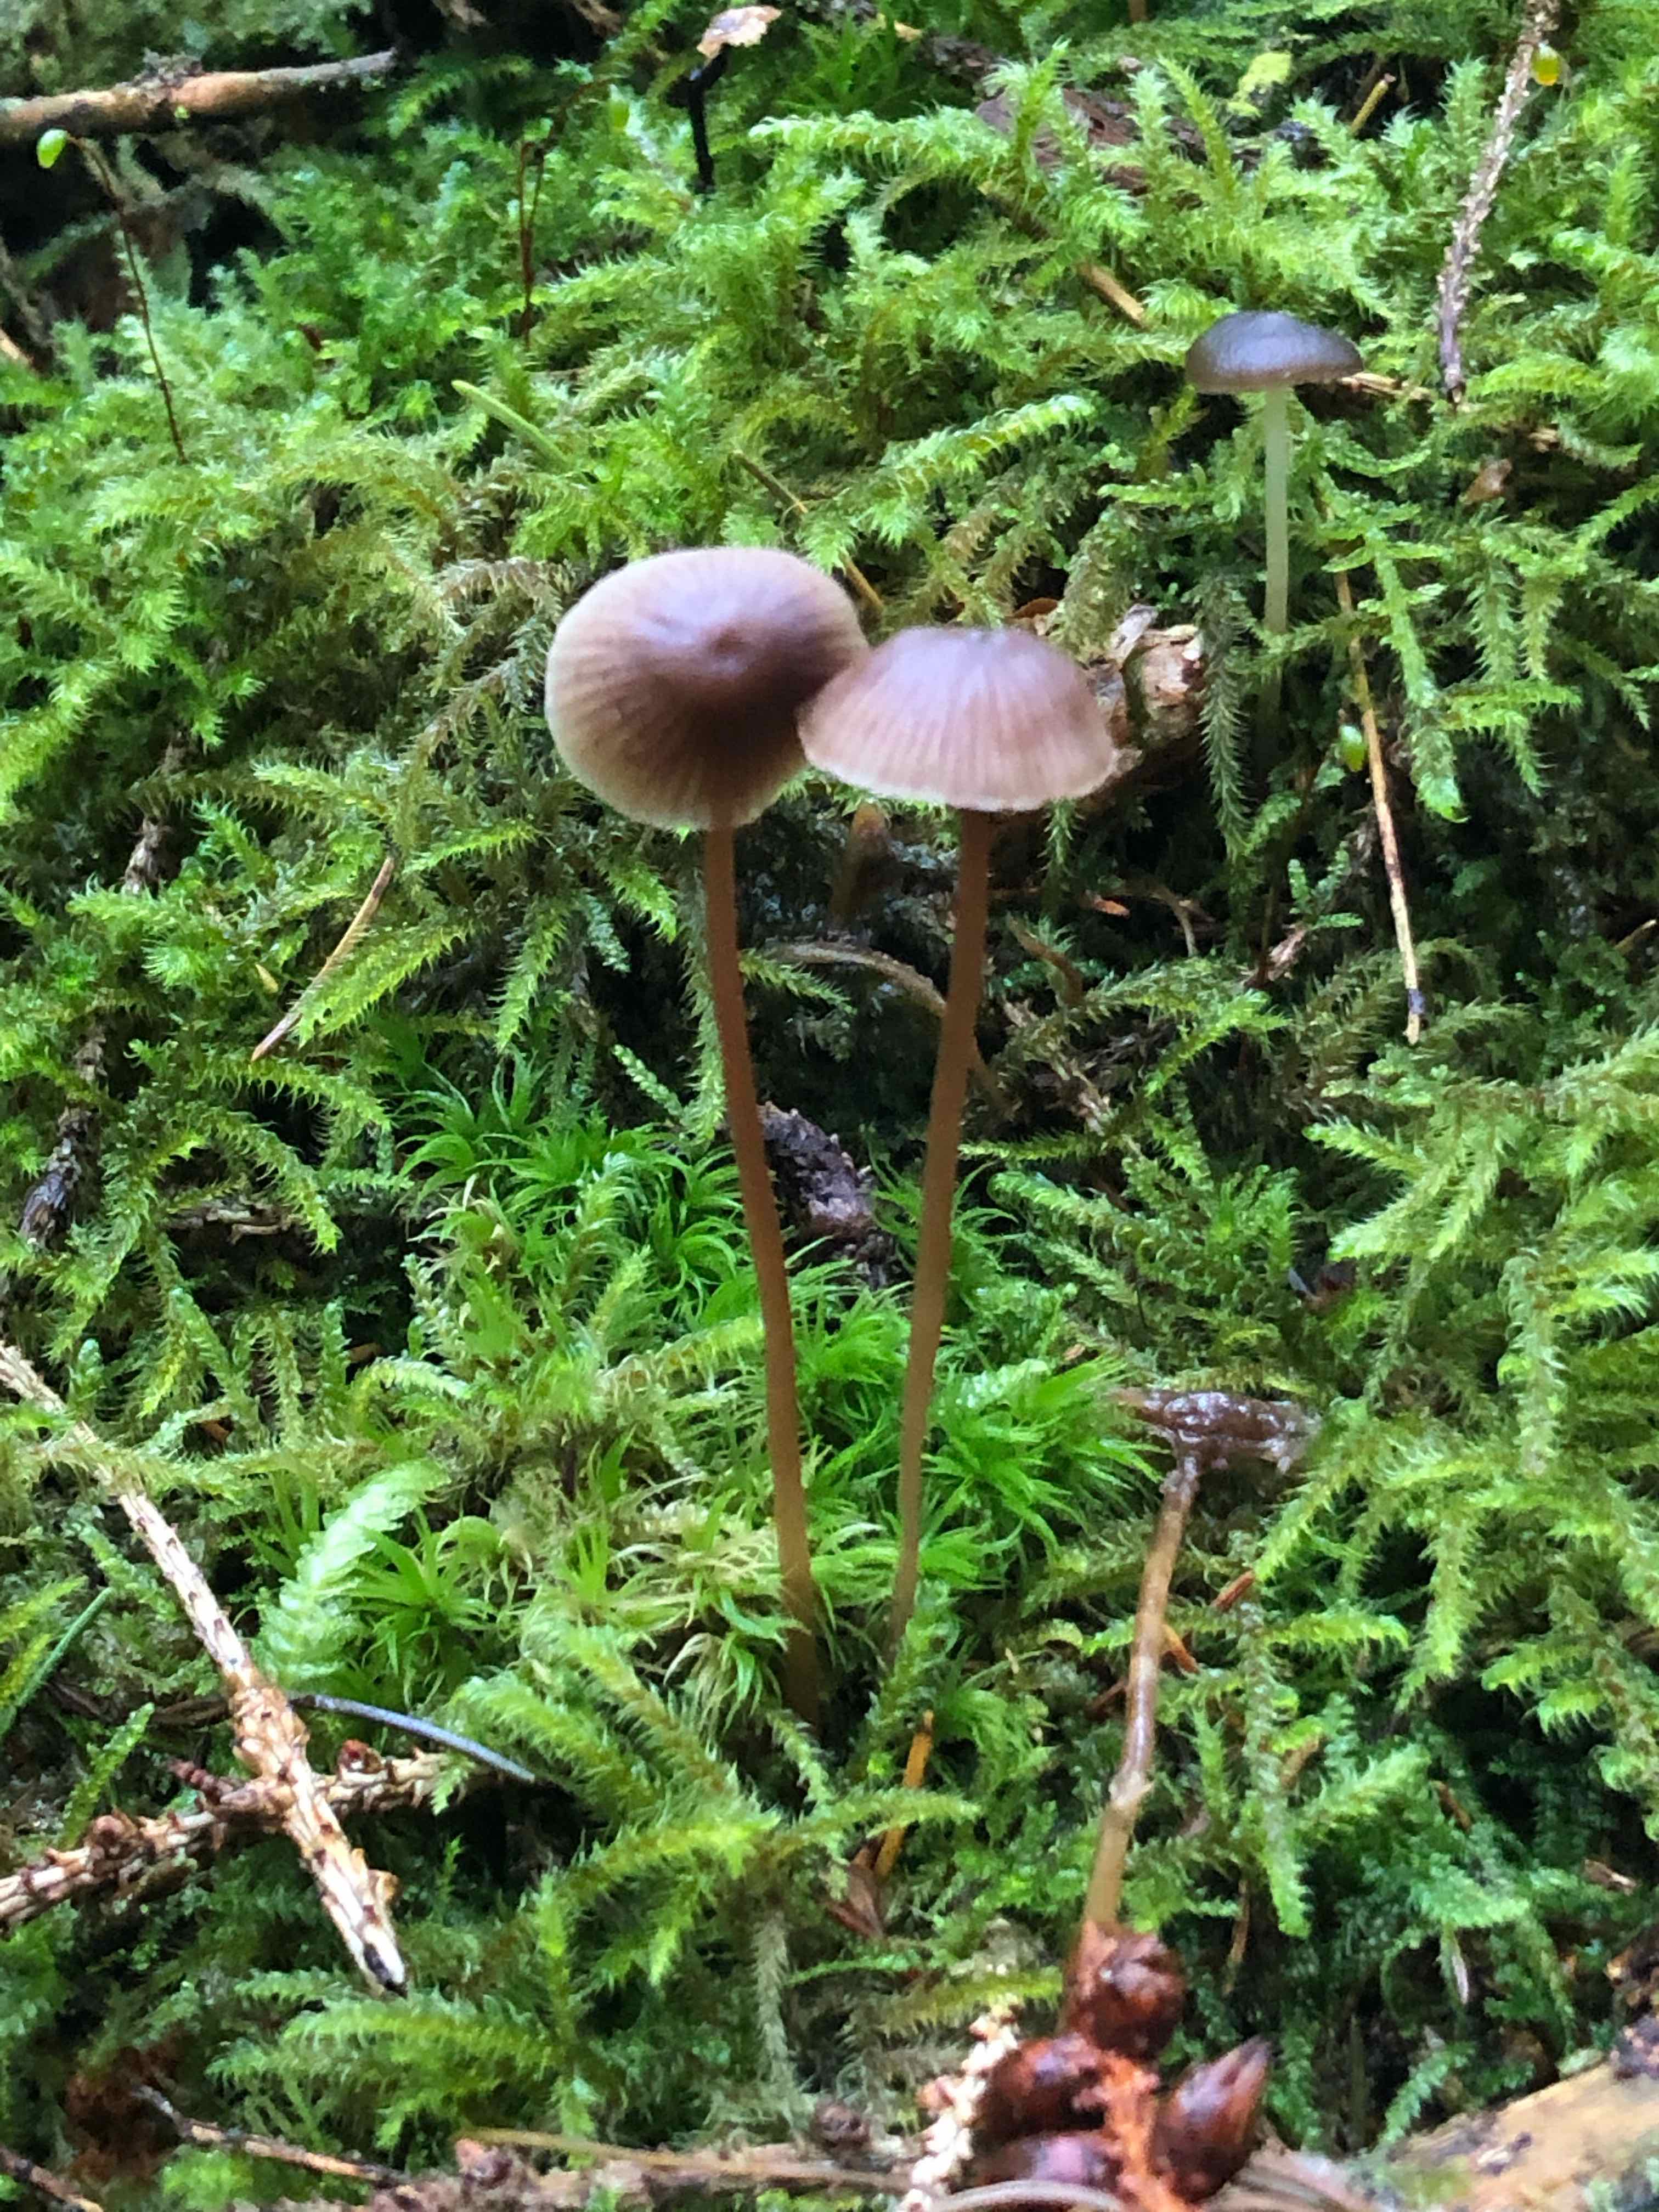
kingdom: Fungi
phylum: Basidiomycota
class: Agaricomycetes
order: Agaricales
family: Mycenaceae
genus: Mycena
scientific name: Mycena
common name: huesvamp
